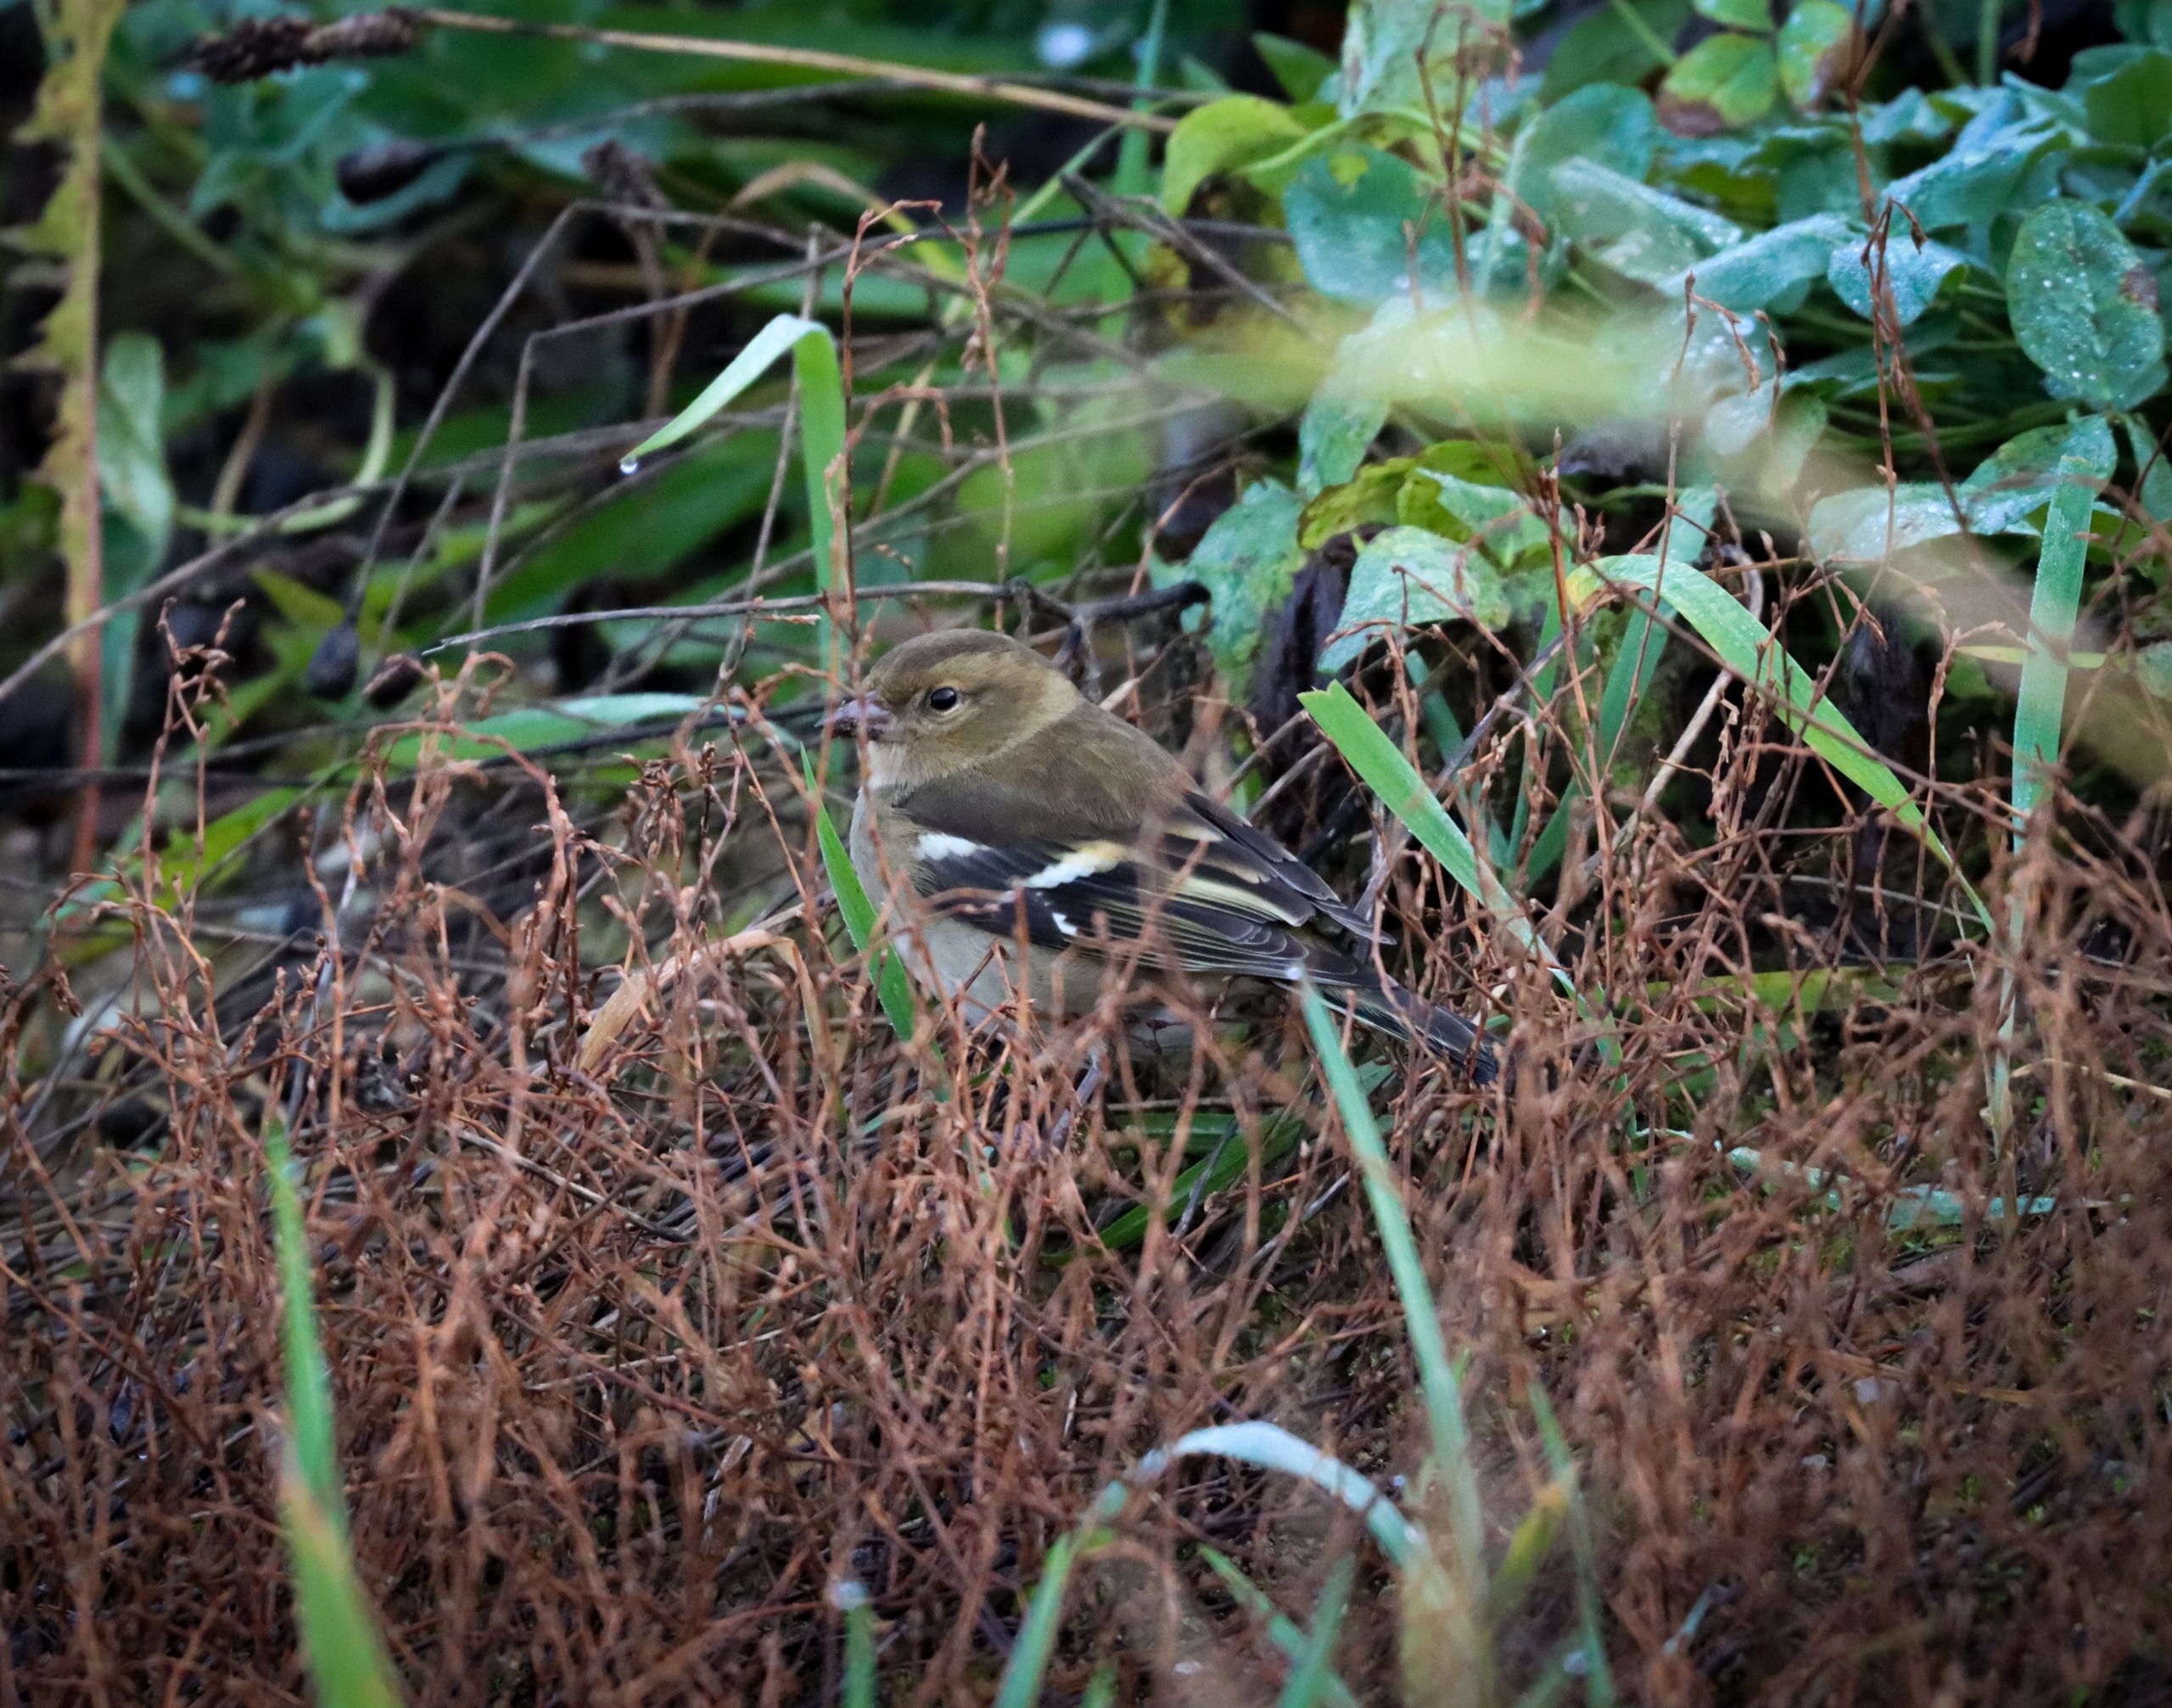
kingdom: Animalia
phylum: Chordata
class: Aves
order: Passeriformes
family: Fringillidae
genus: Fringilla
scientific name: Fringilla coelebs
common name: Bogfinke
